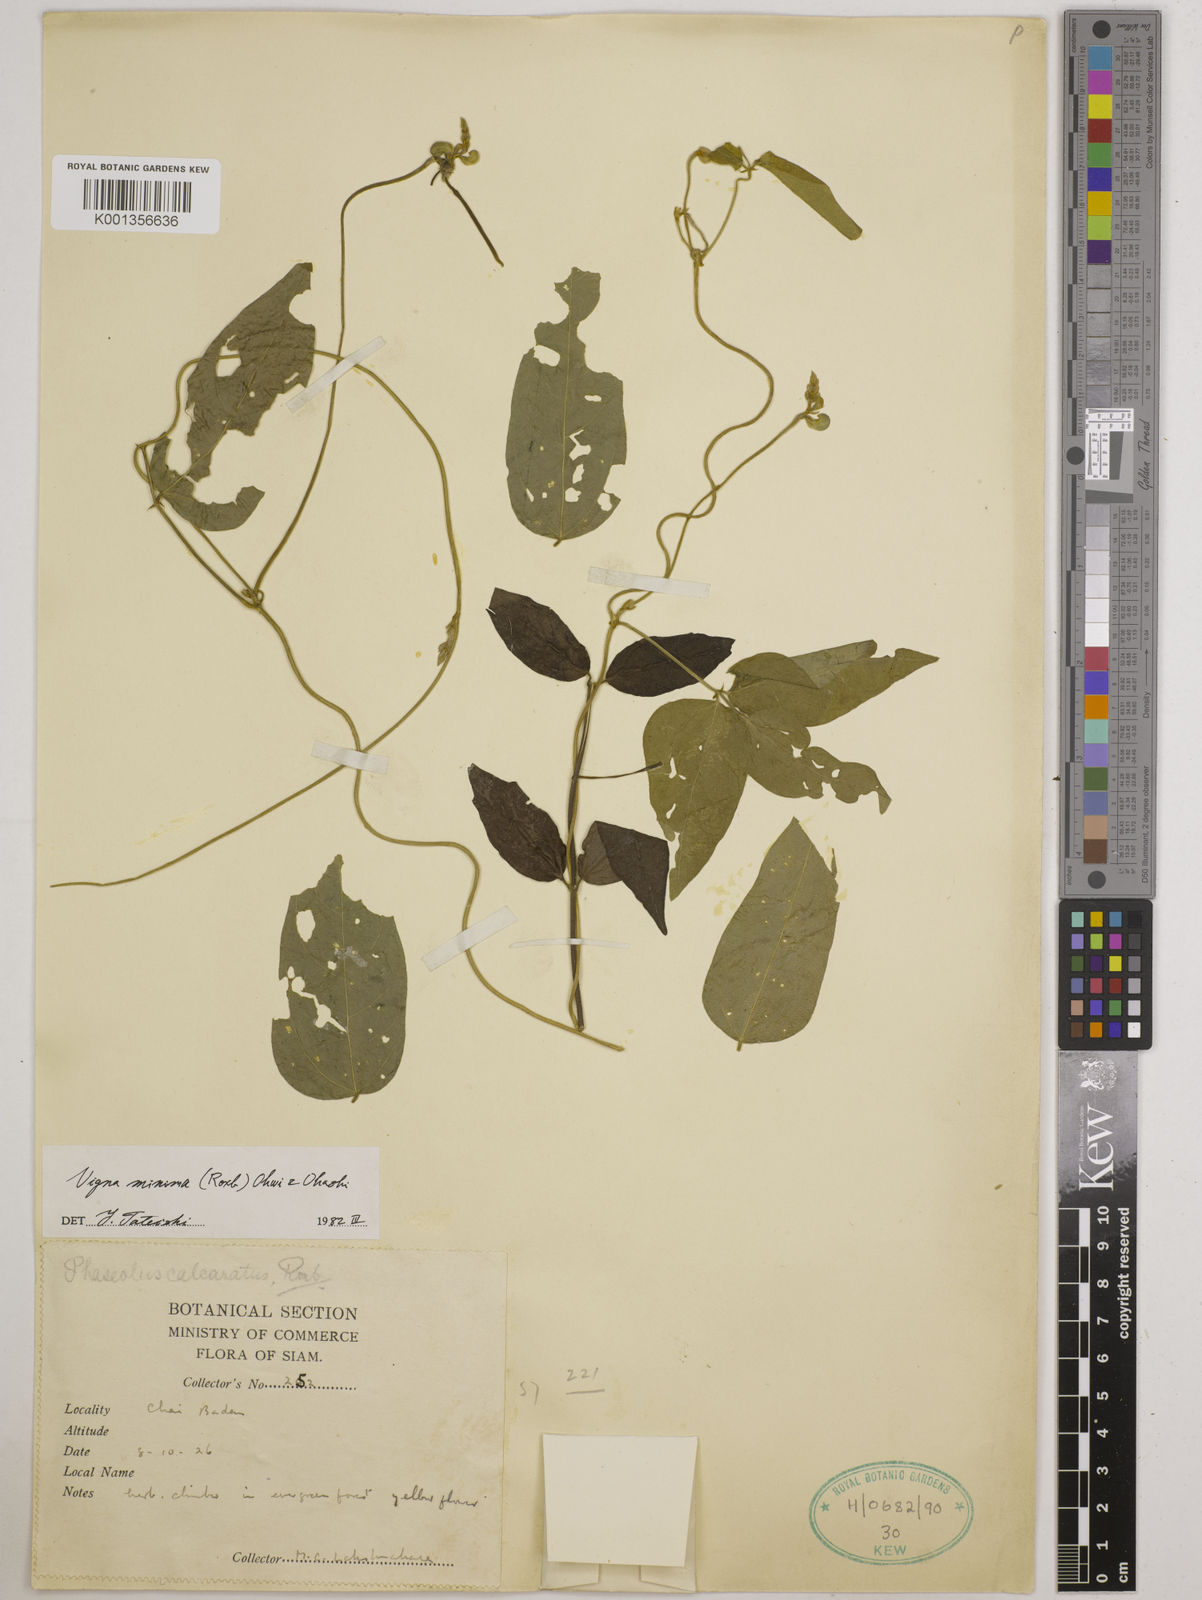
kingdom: Plantae
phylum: Tracheophyta
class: Magnoliopsida
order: Fabales
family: Fabaceae
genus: Vigna
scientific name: Vigna minima
